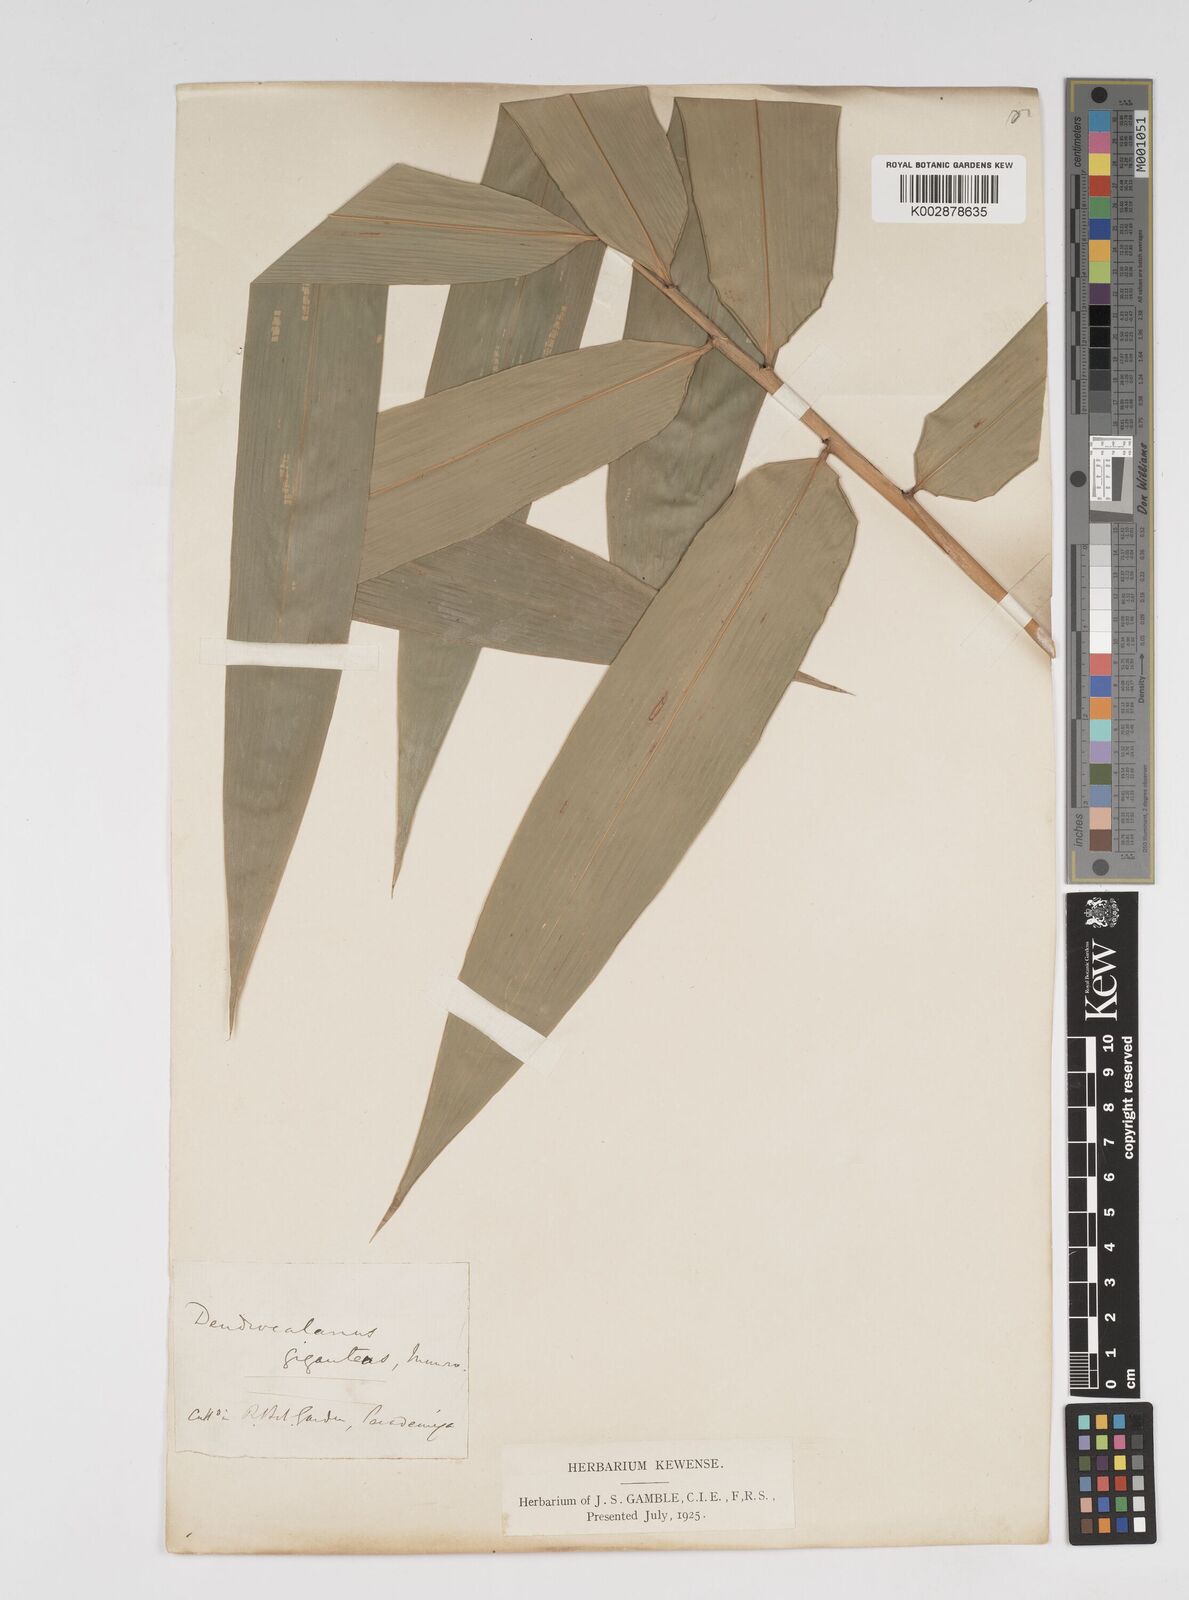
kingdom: Plantae
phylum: Tracheophyta
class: Liliopsida
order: Poales
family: Poaceae
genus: Dendrocalamus
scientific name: Dendrocalamus giganteus
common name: Giant bamboo
